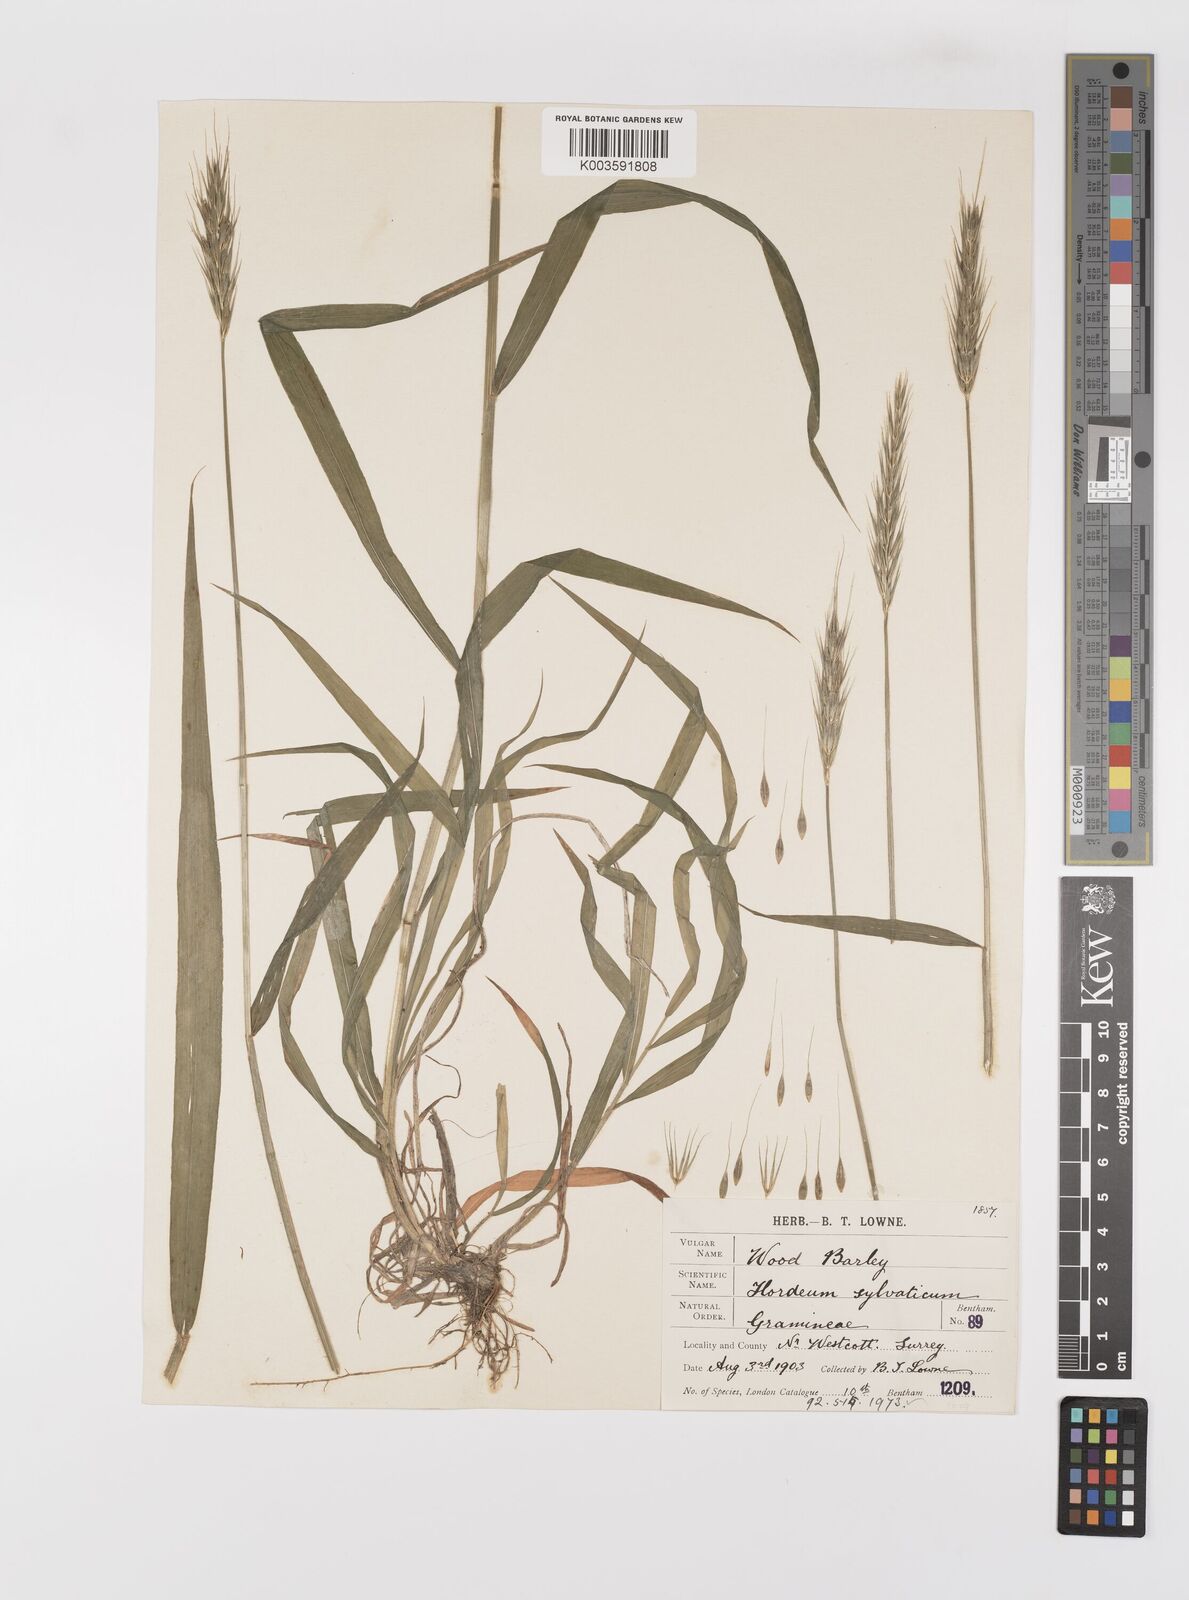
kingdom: Plantae
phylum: Tracheophyta
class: Liliopsida
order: Poales
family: Poaceae
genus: Hordelymus
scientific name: Hordelymus europaeus
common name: Wood-barley
